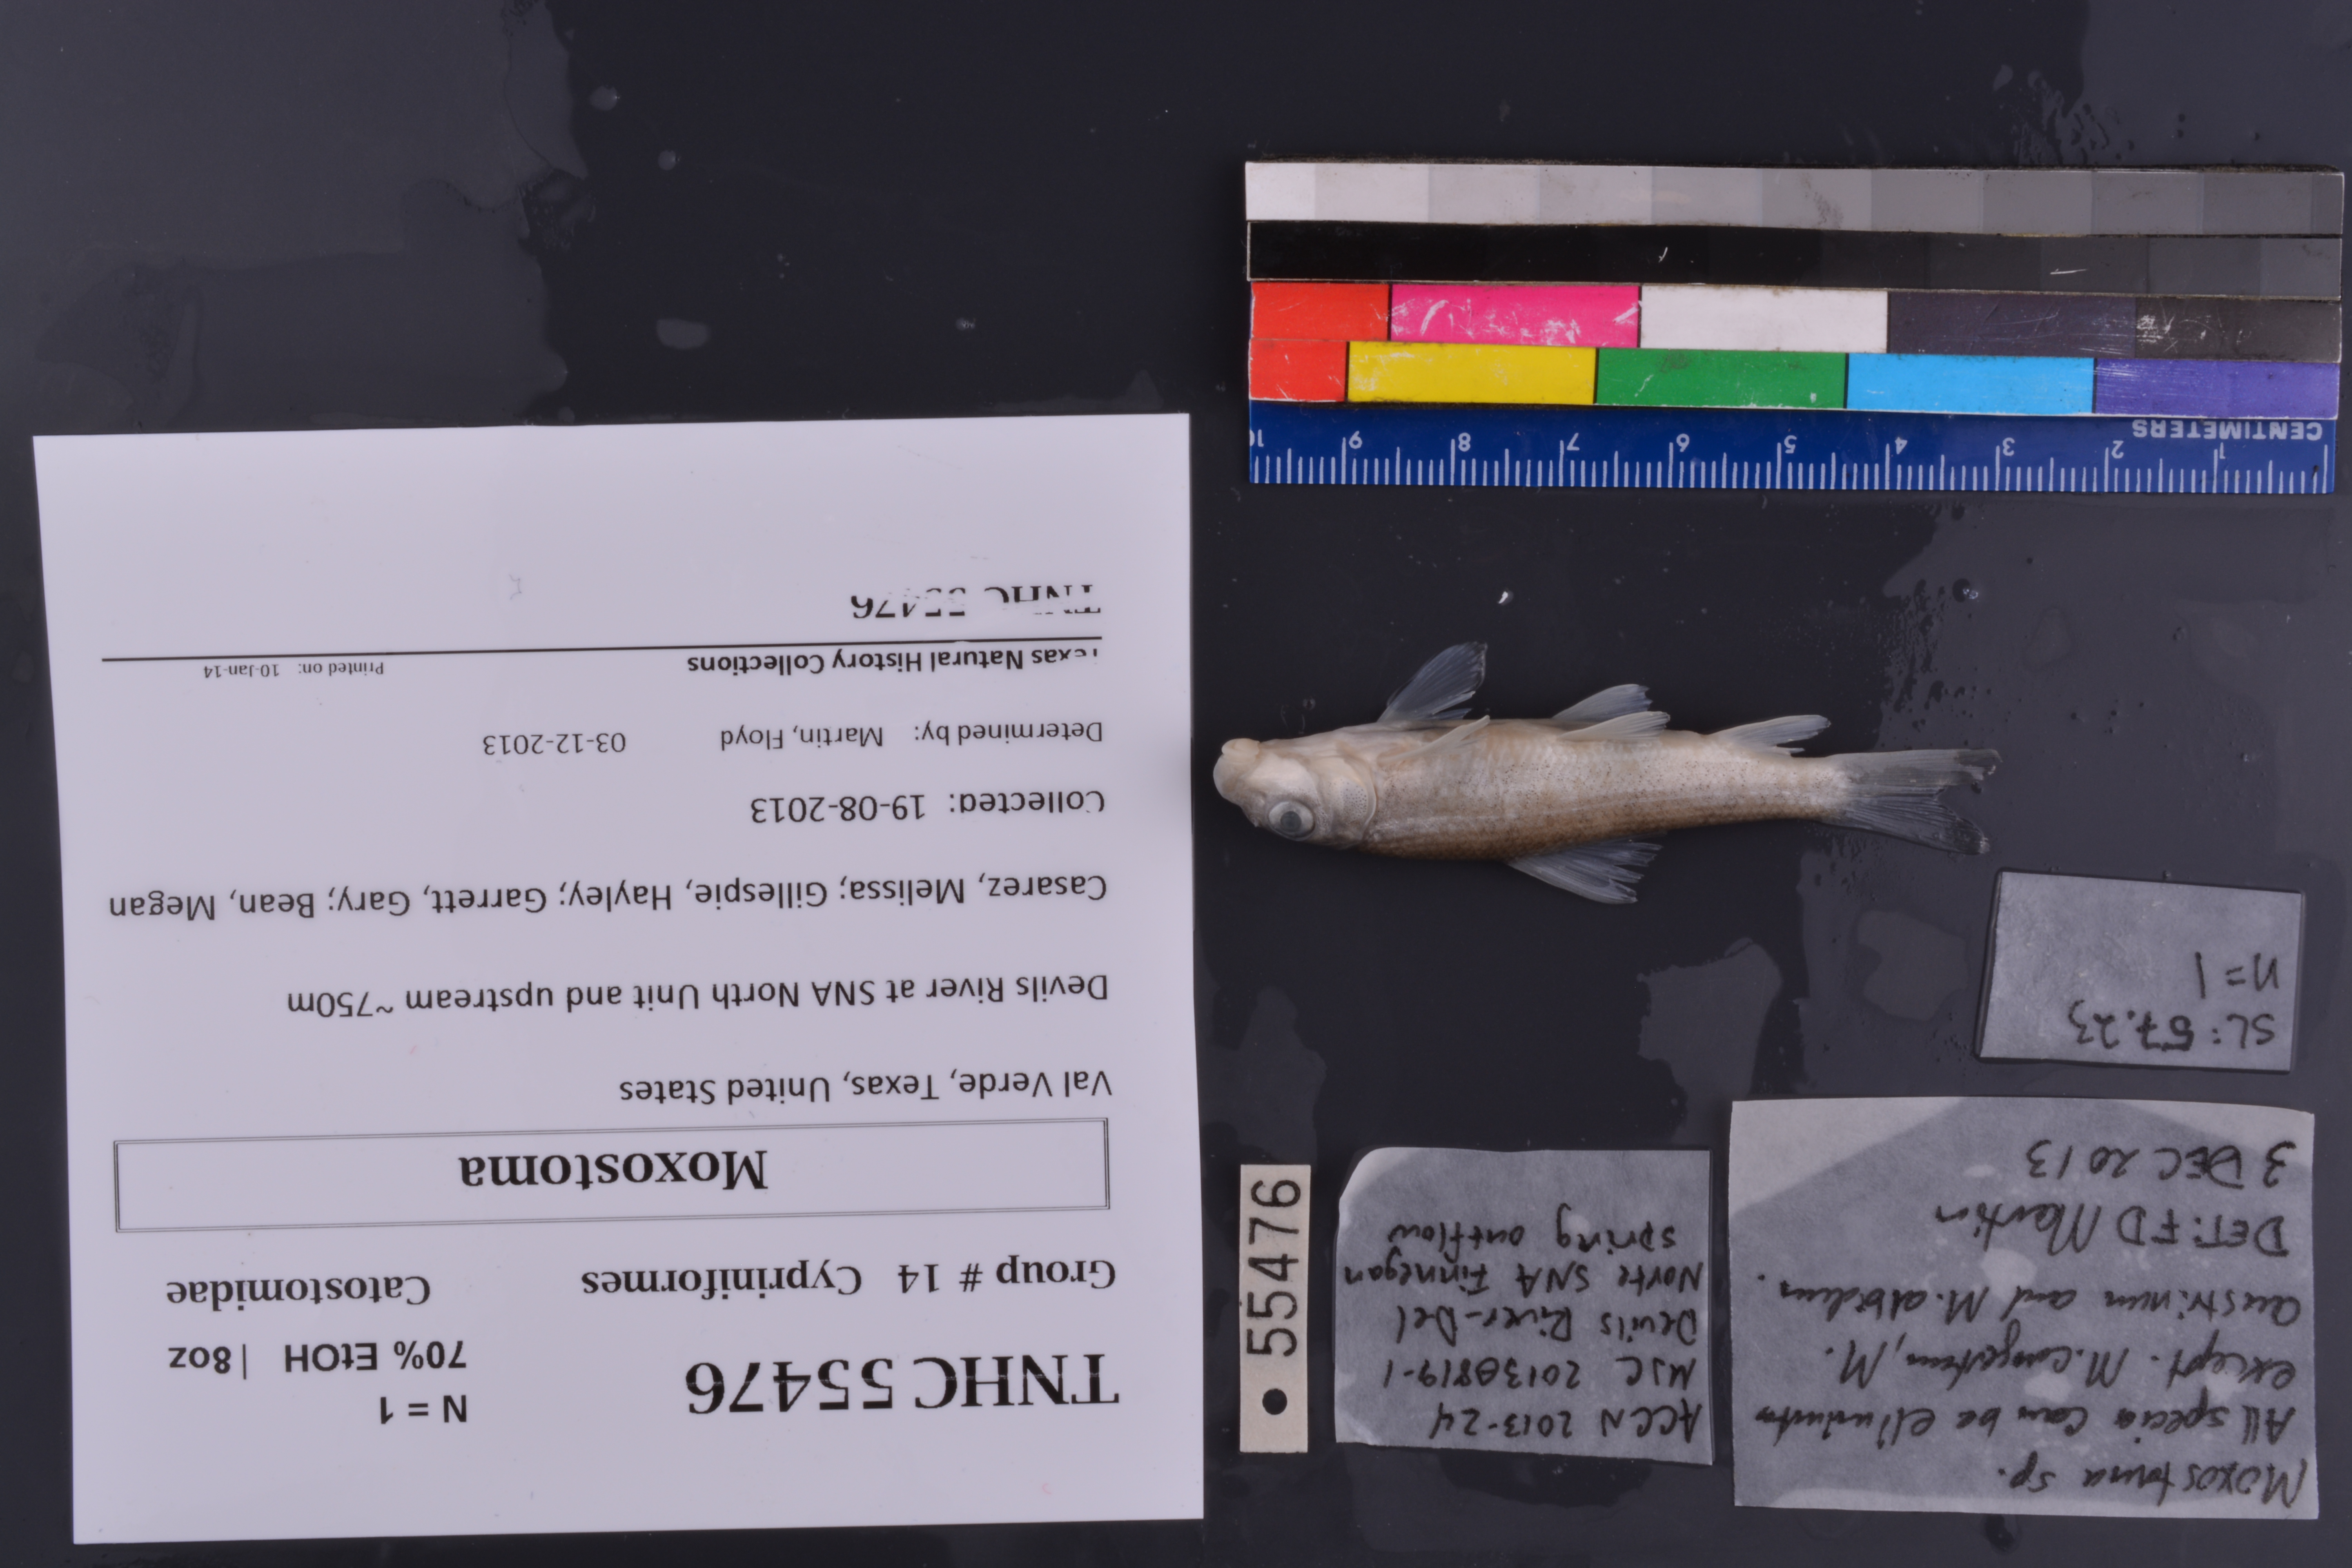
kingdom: Animalia
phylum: Chordata
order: Cypriniformes
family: Catostomidae
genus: Moxostoma
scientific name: Moxostoma
